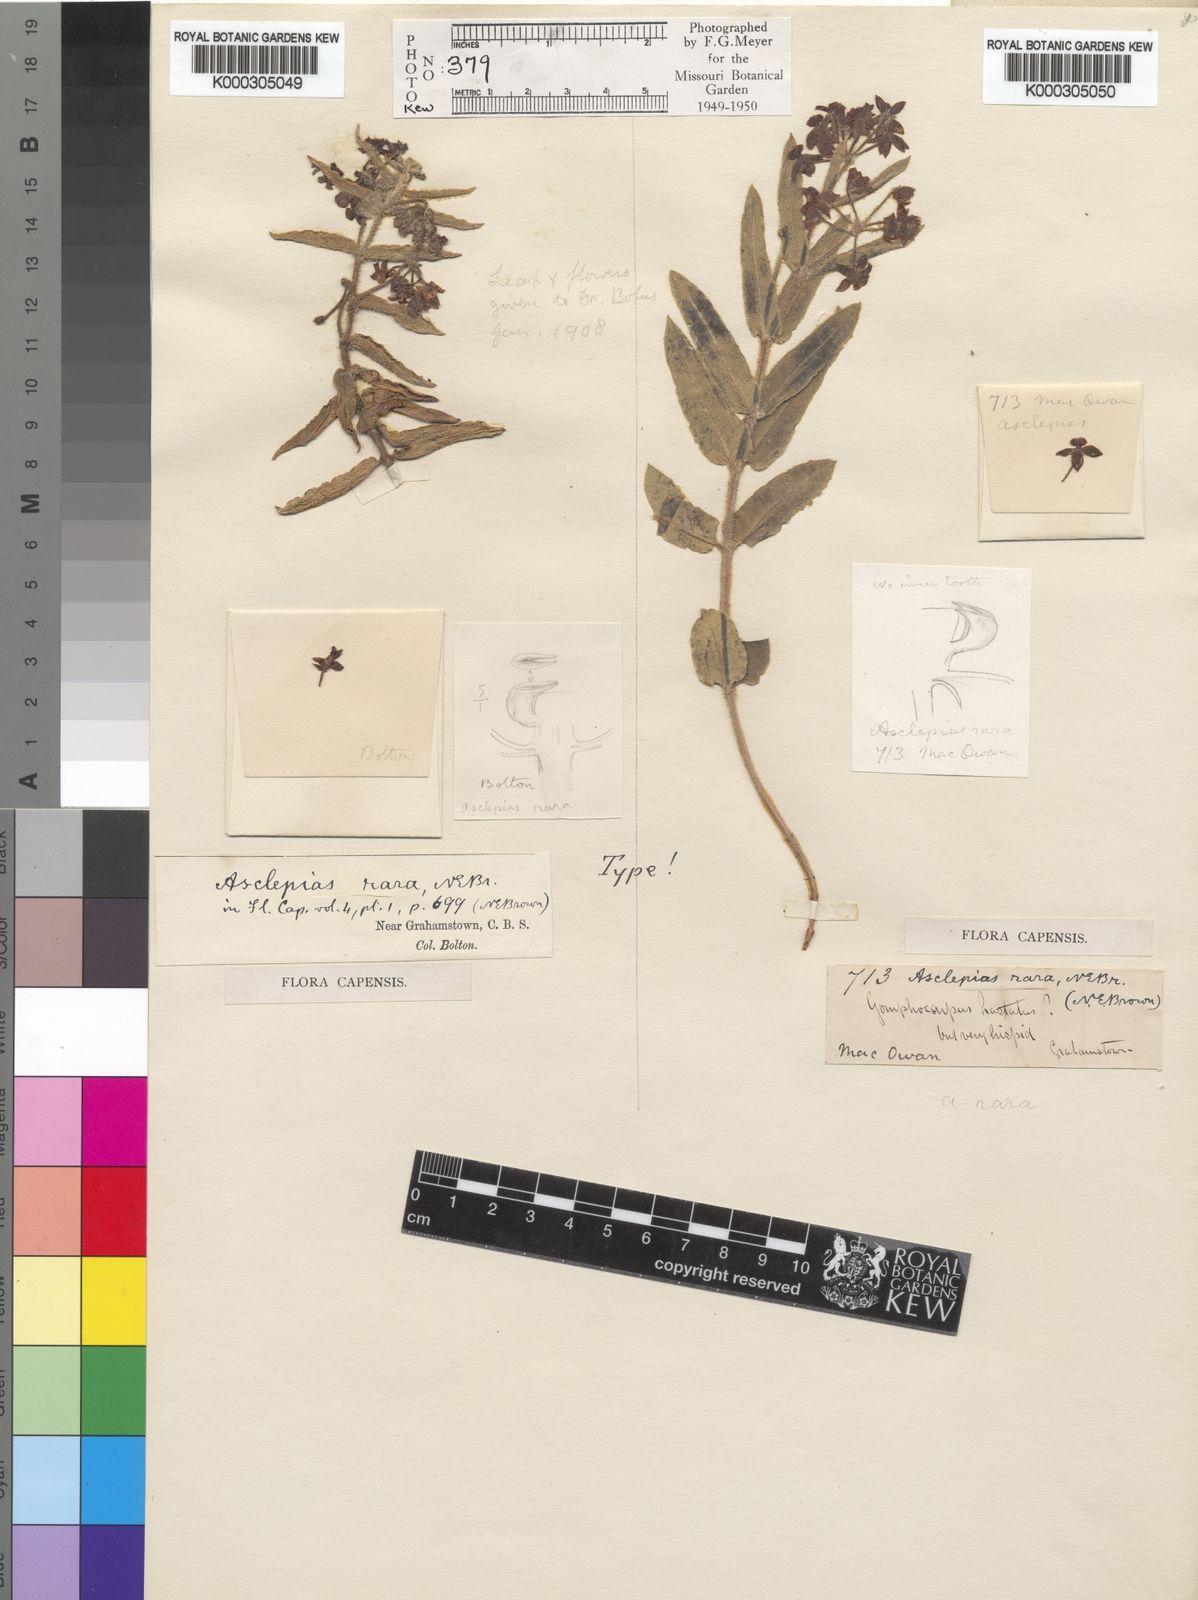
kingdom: Plantae
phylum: Tracheophyta
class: Magnoliopsida
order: Gentianales
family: Apocynaceae
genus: Asclepias
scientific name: Asclepias rara
